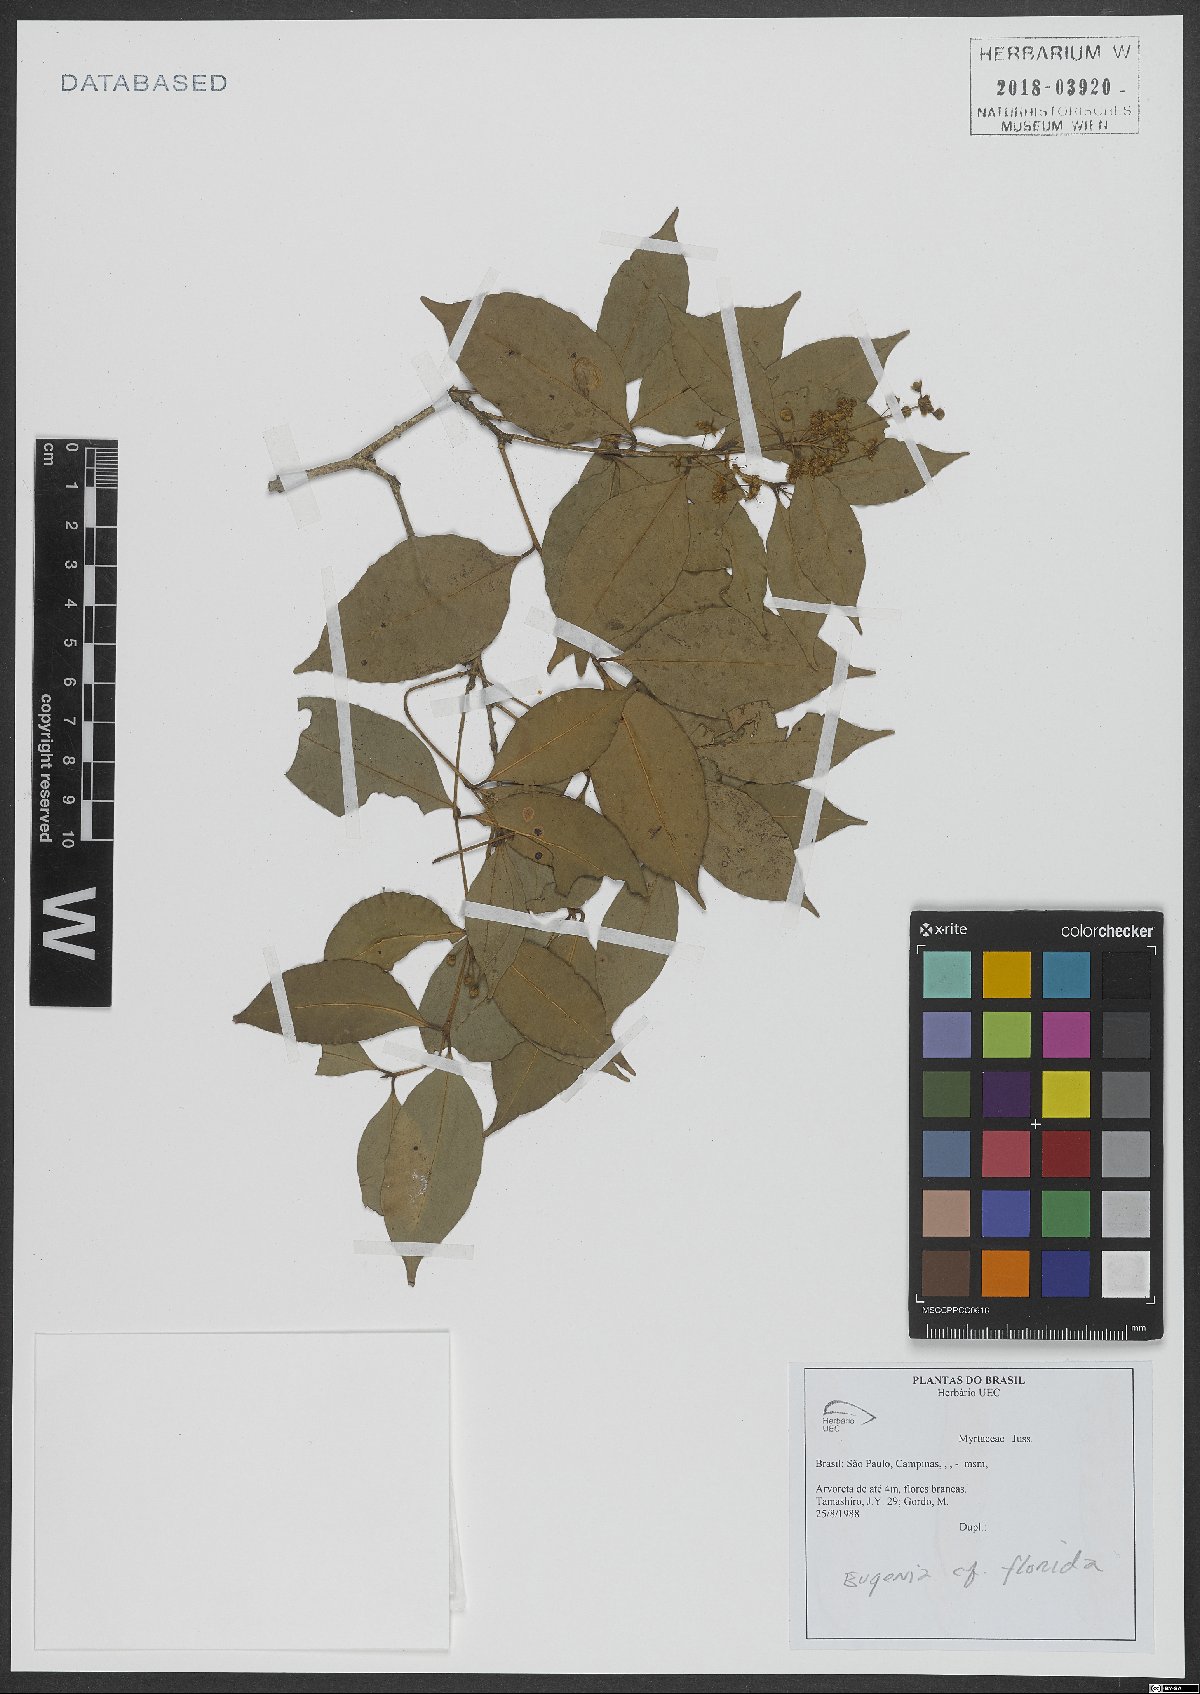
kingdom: Plantae
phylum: Tracheophyta
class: Magnoliopsida
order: Myrtales
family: Myrtaceae
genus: Eugenia
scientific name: Eugenia florida
